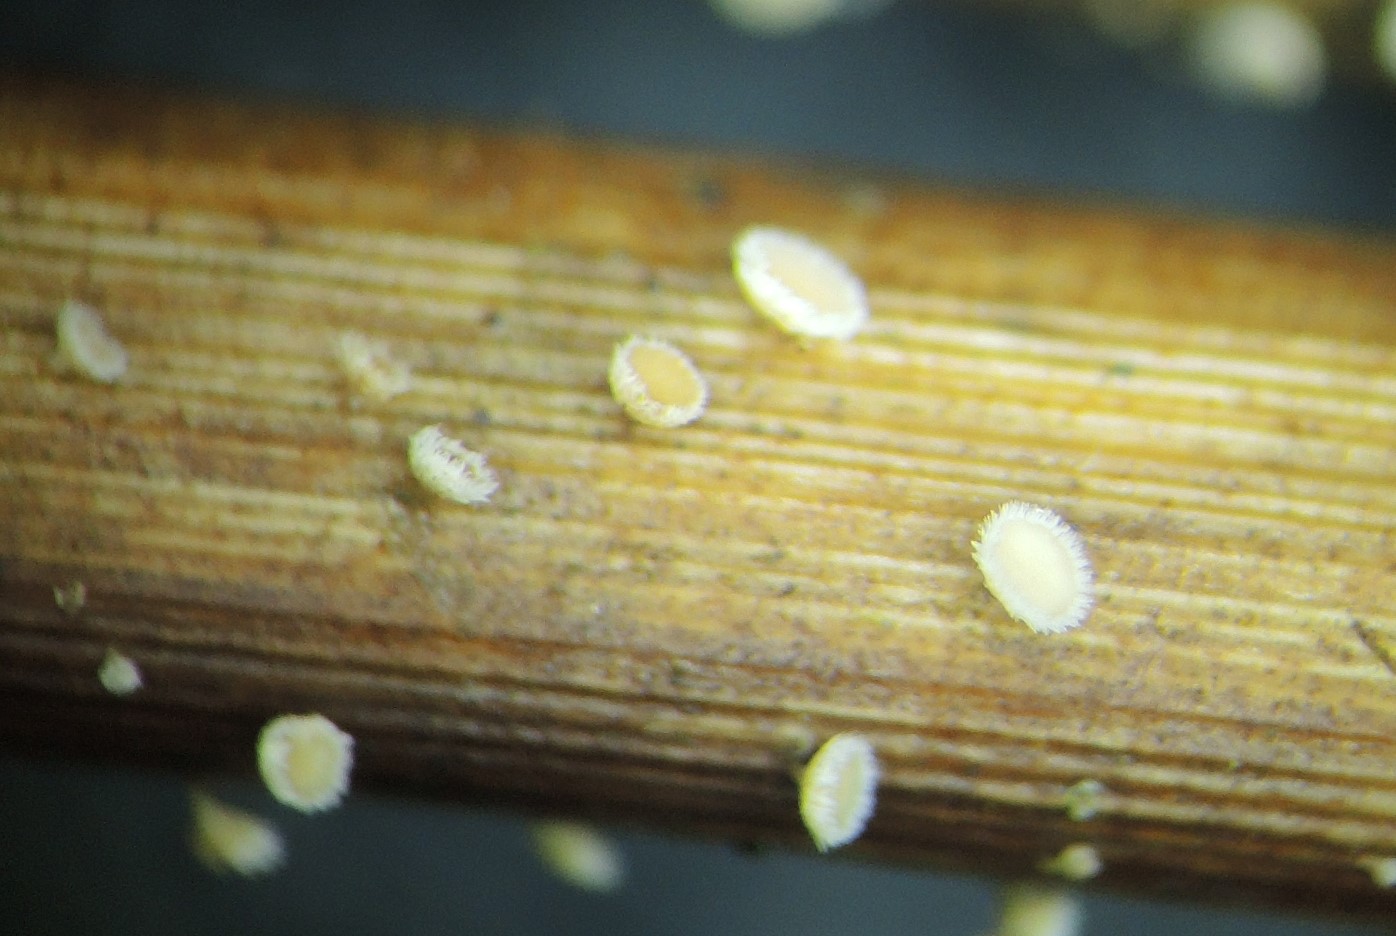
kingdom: Fungi
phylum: Ascomycota
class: Leotiomycetes
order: Helotiales
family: Lachnaceae
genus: Lachnum
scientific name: Lachnum apalum
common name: siv-frynseskive
